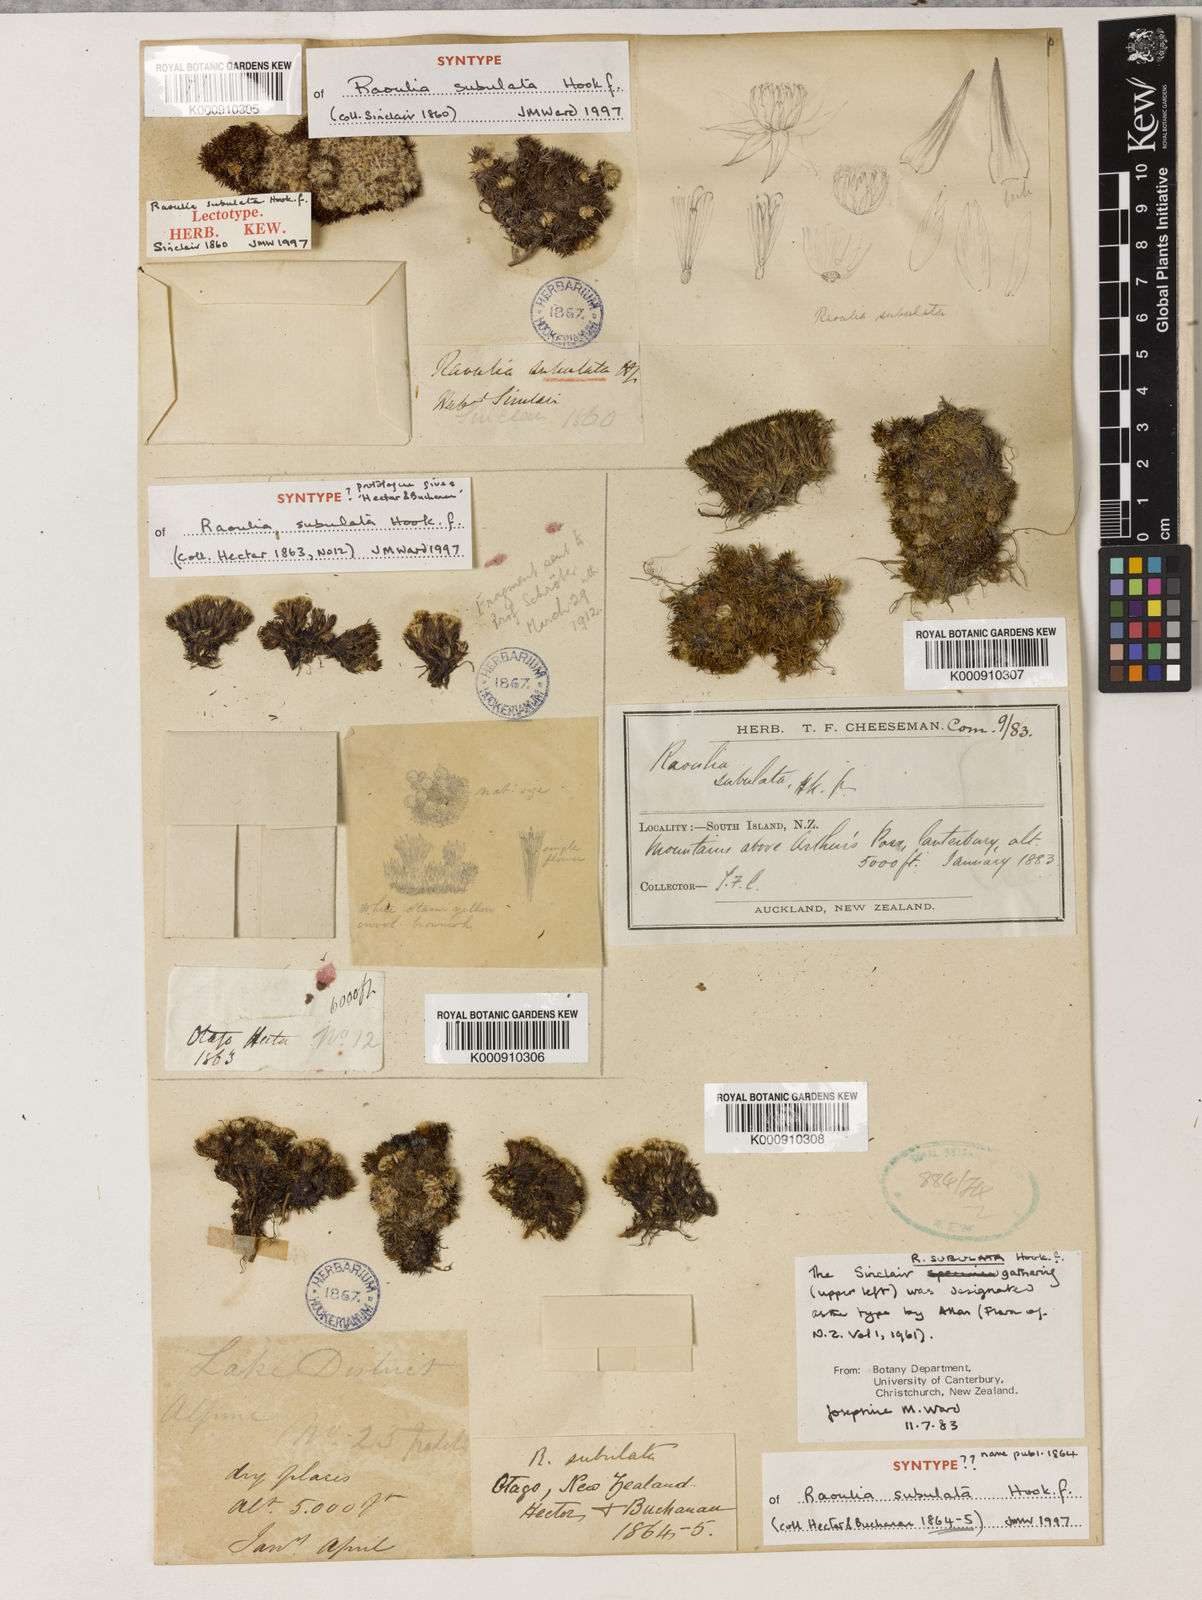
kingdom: Plantae
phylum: Tracheophyta
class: Magnoliopsida
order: Asterales
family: Asteraceae
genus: Raoulia
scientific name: Raoulia subulata
